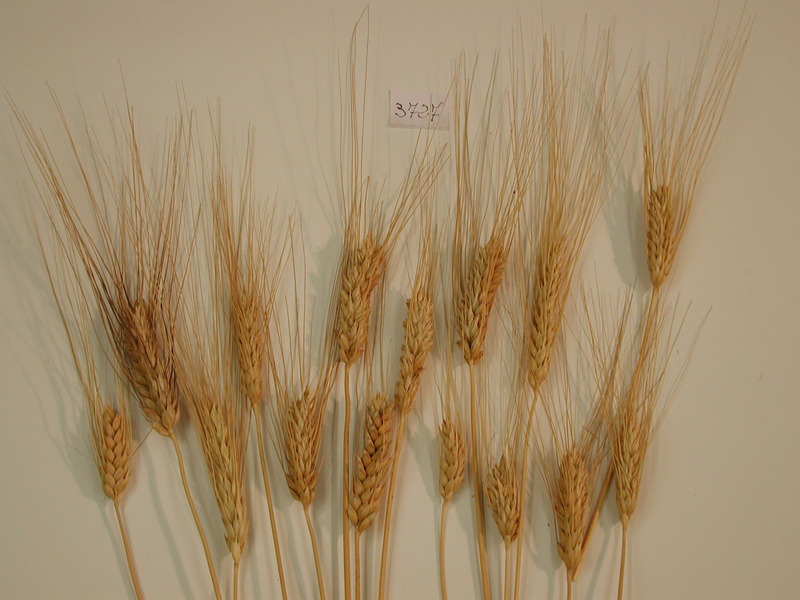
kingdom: Plantae
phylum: Tracheophyta
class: Liliopsida
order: Poales
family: Poaceae
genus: Triticum
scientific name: Triticum turgidum
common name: Wheat
